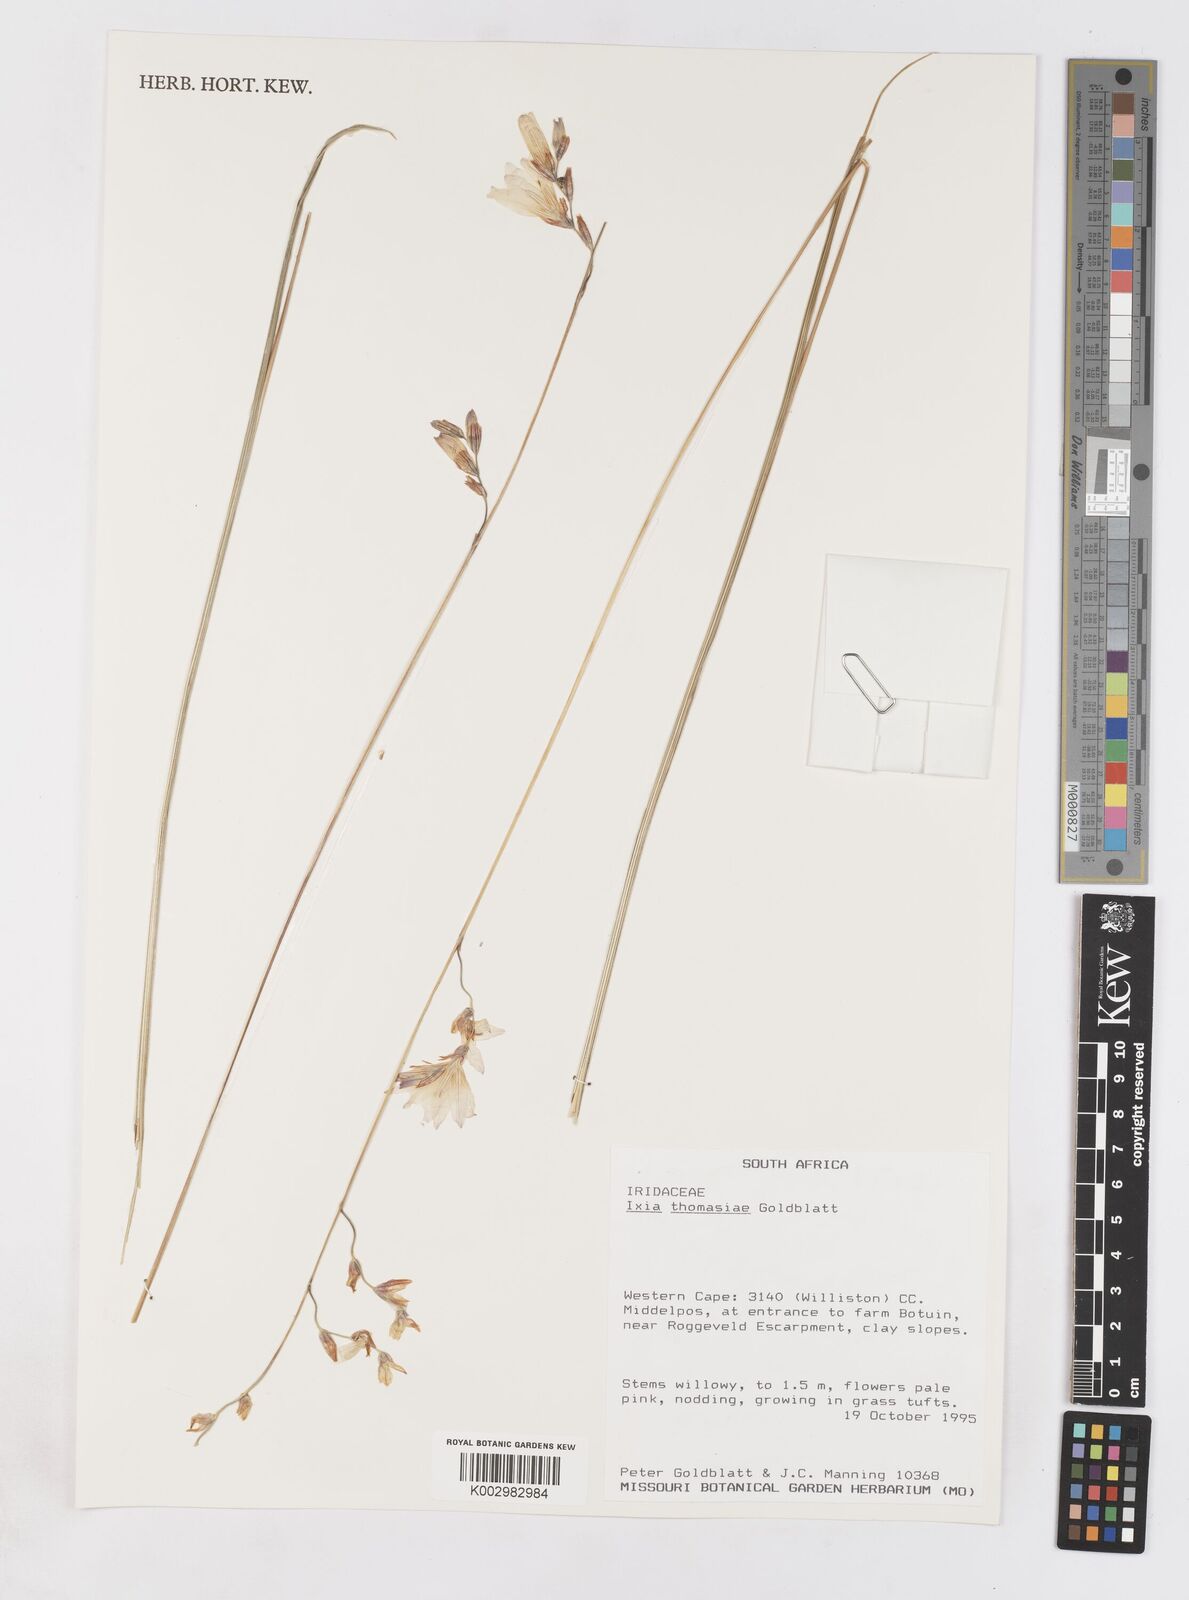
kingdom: Plantae
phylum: Tracheophyta
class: Liliopsida
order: Asparagales
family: Iridaceae
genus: Ixia
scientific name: Ixia thomasiae
